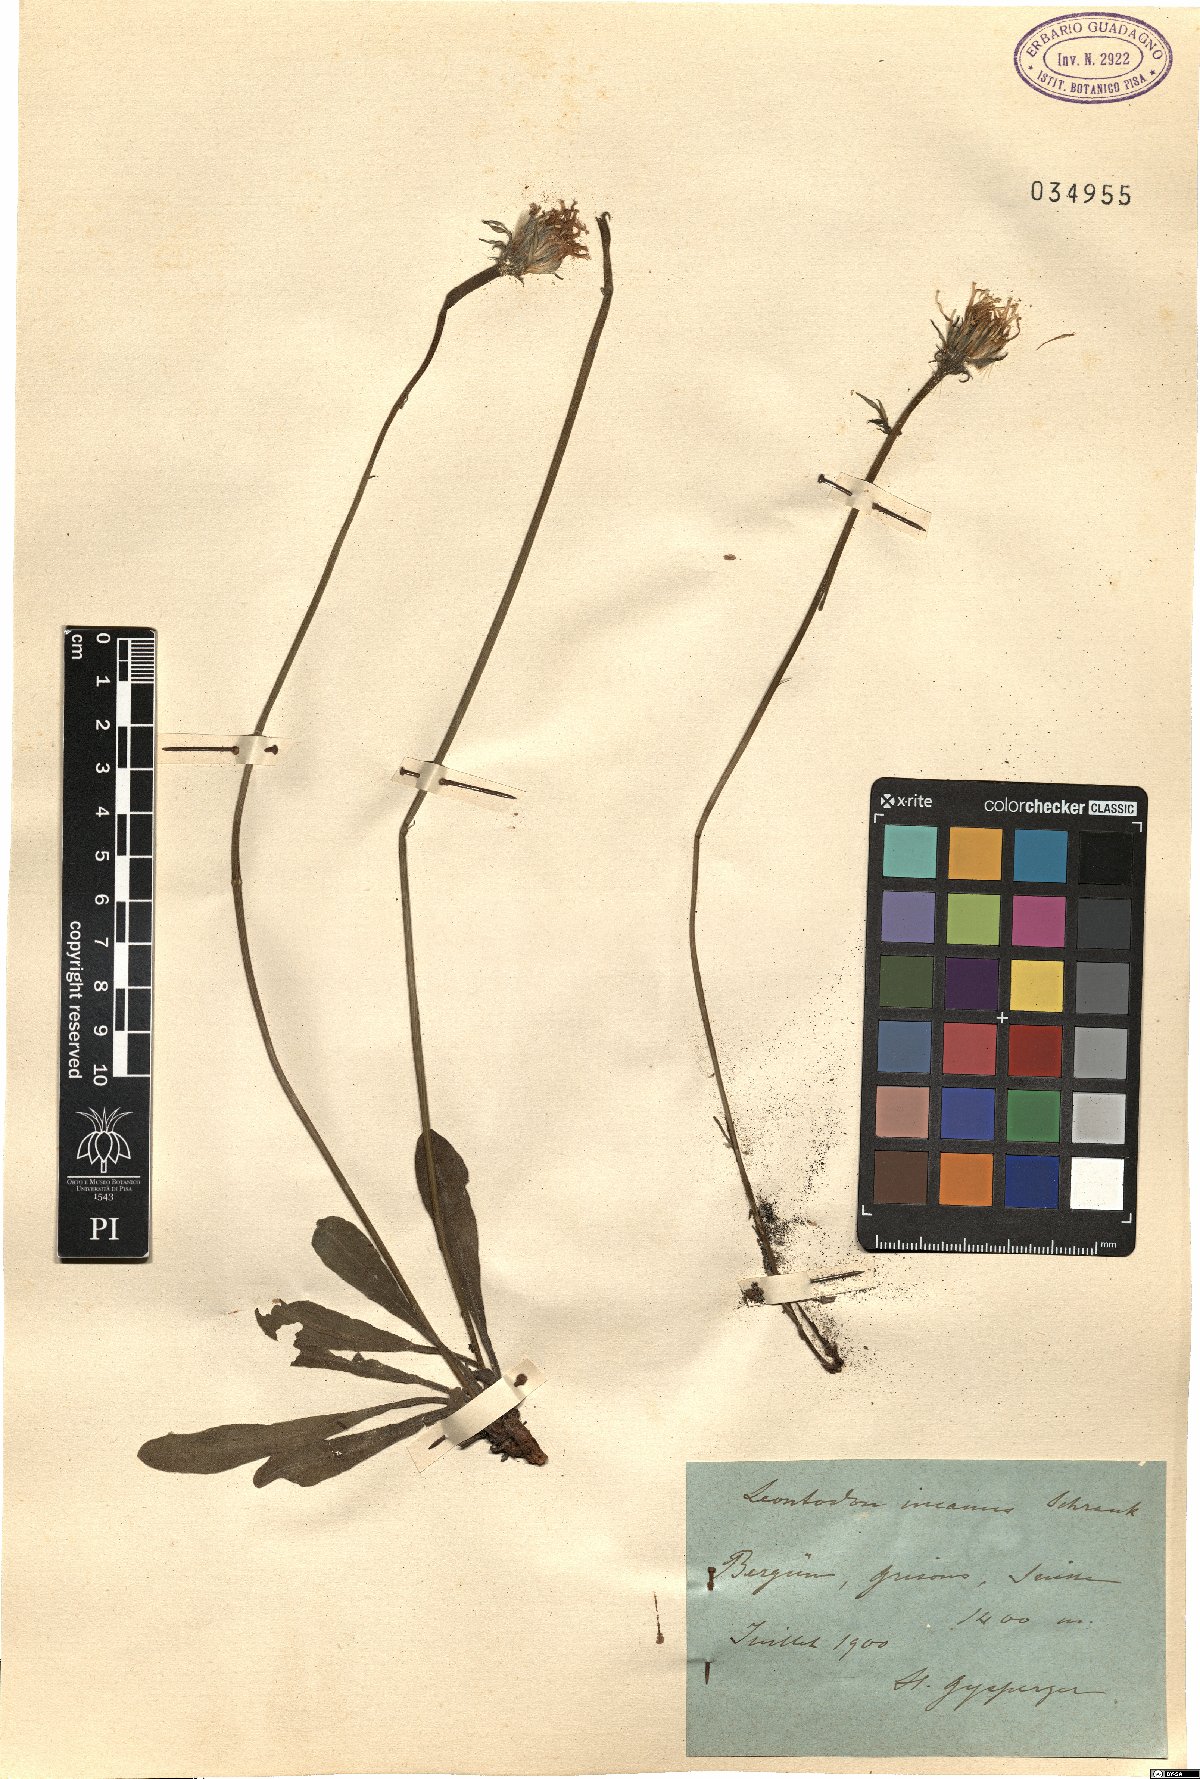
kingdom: Plantae
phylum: Tracheophyta
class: Magnoliopsida
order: Asterales
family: Asteraceae
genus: Leontodon
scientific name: Leontodon incanus
